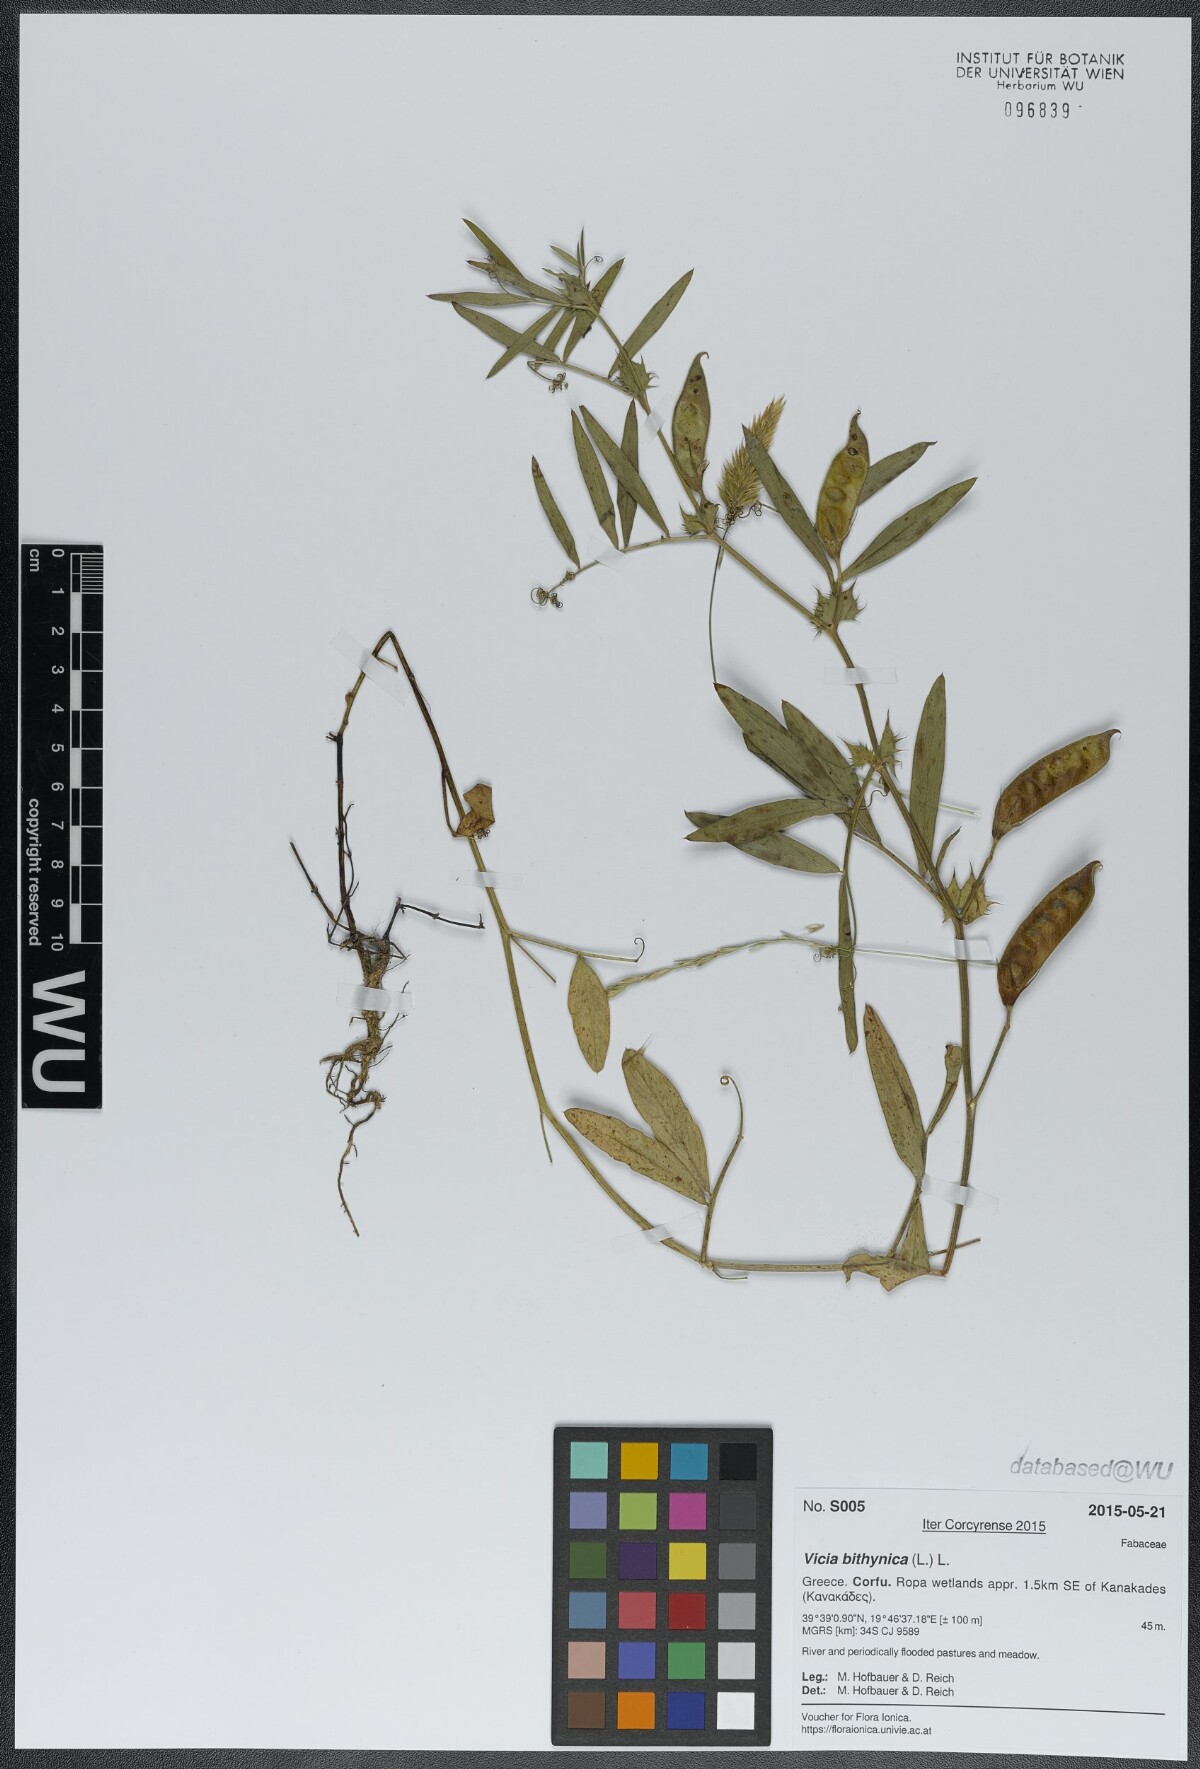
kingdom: Plantae
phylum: Tracheophyta
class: Magnoliopsida
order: Fabales
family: Fabaceae
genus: Vicia
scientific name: Vicia bithynica
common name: Bithynian vetch
